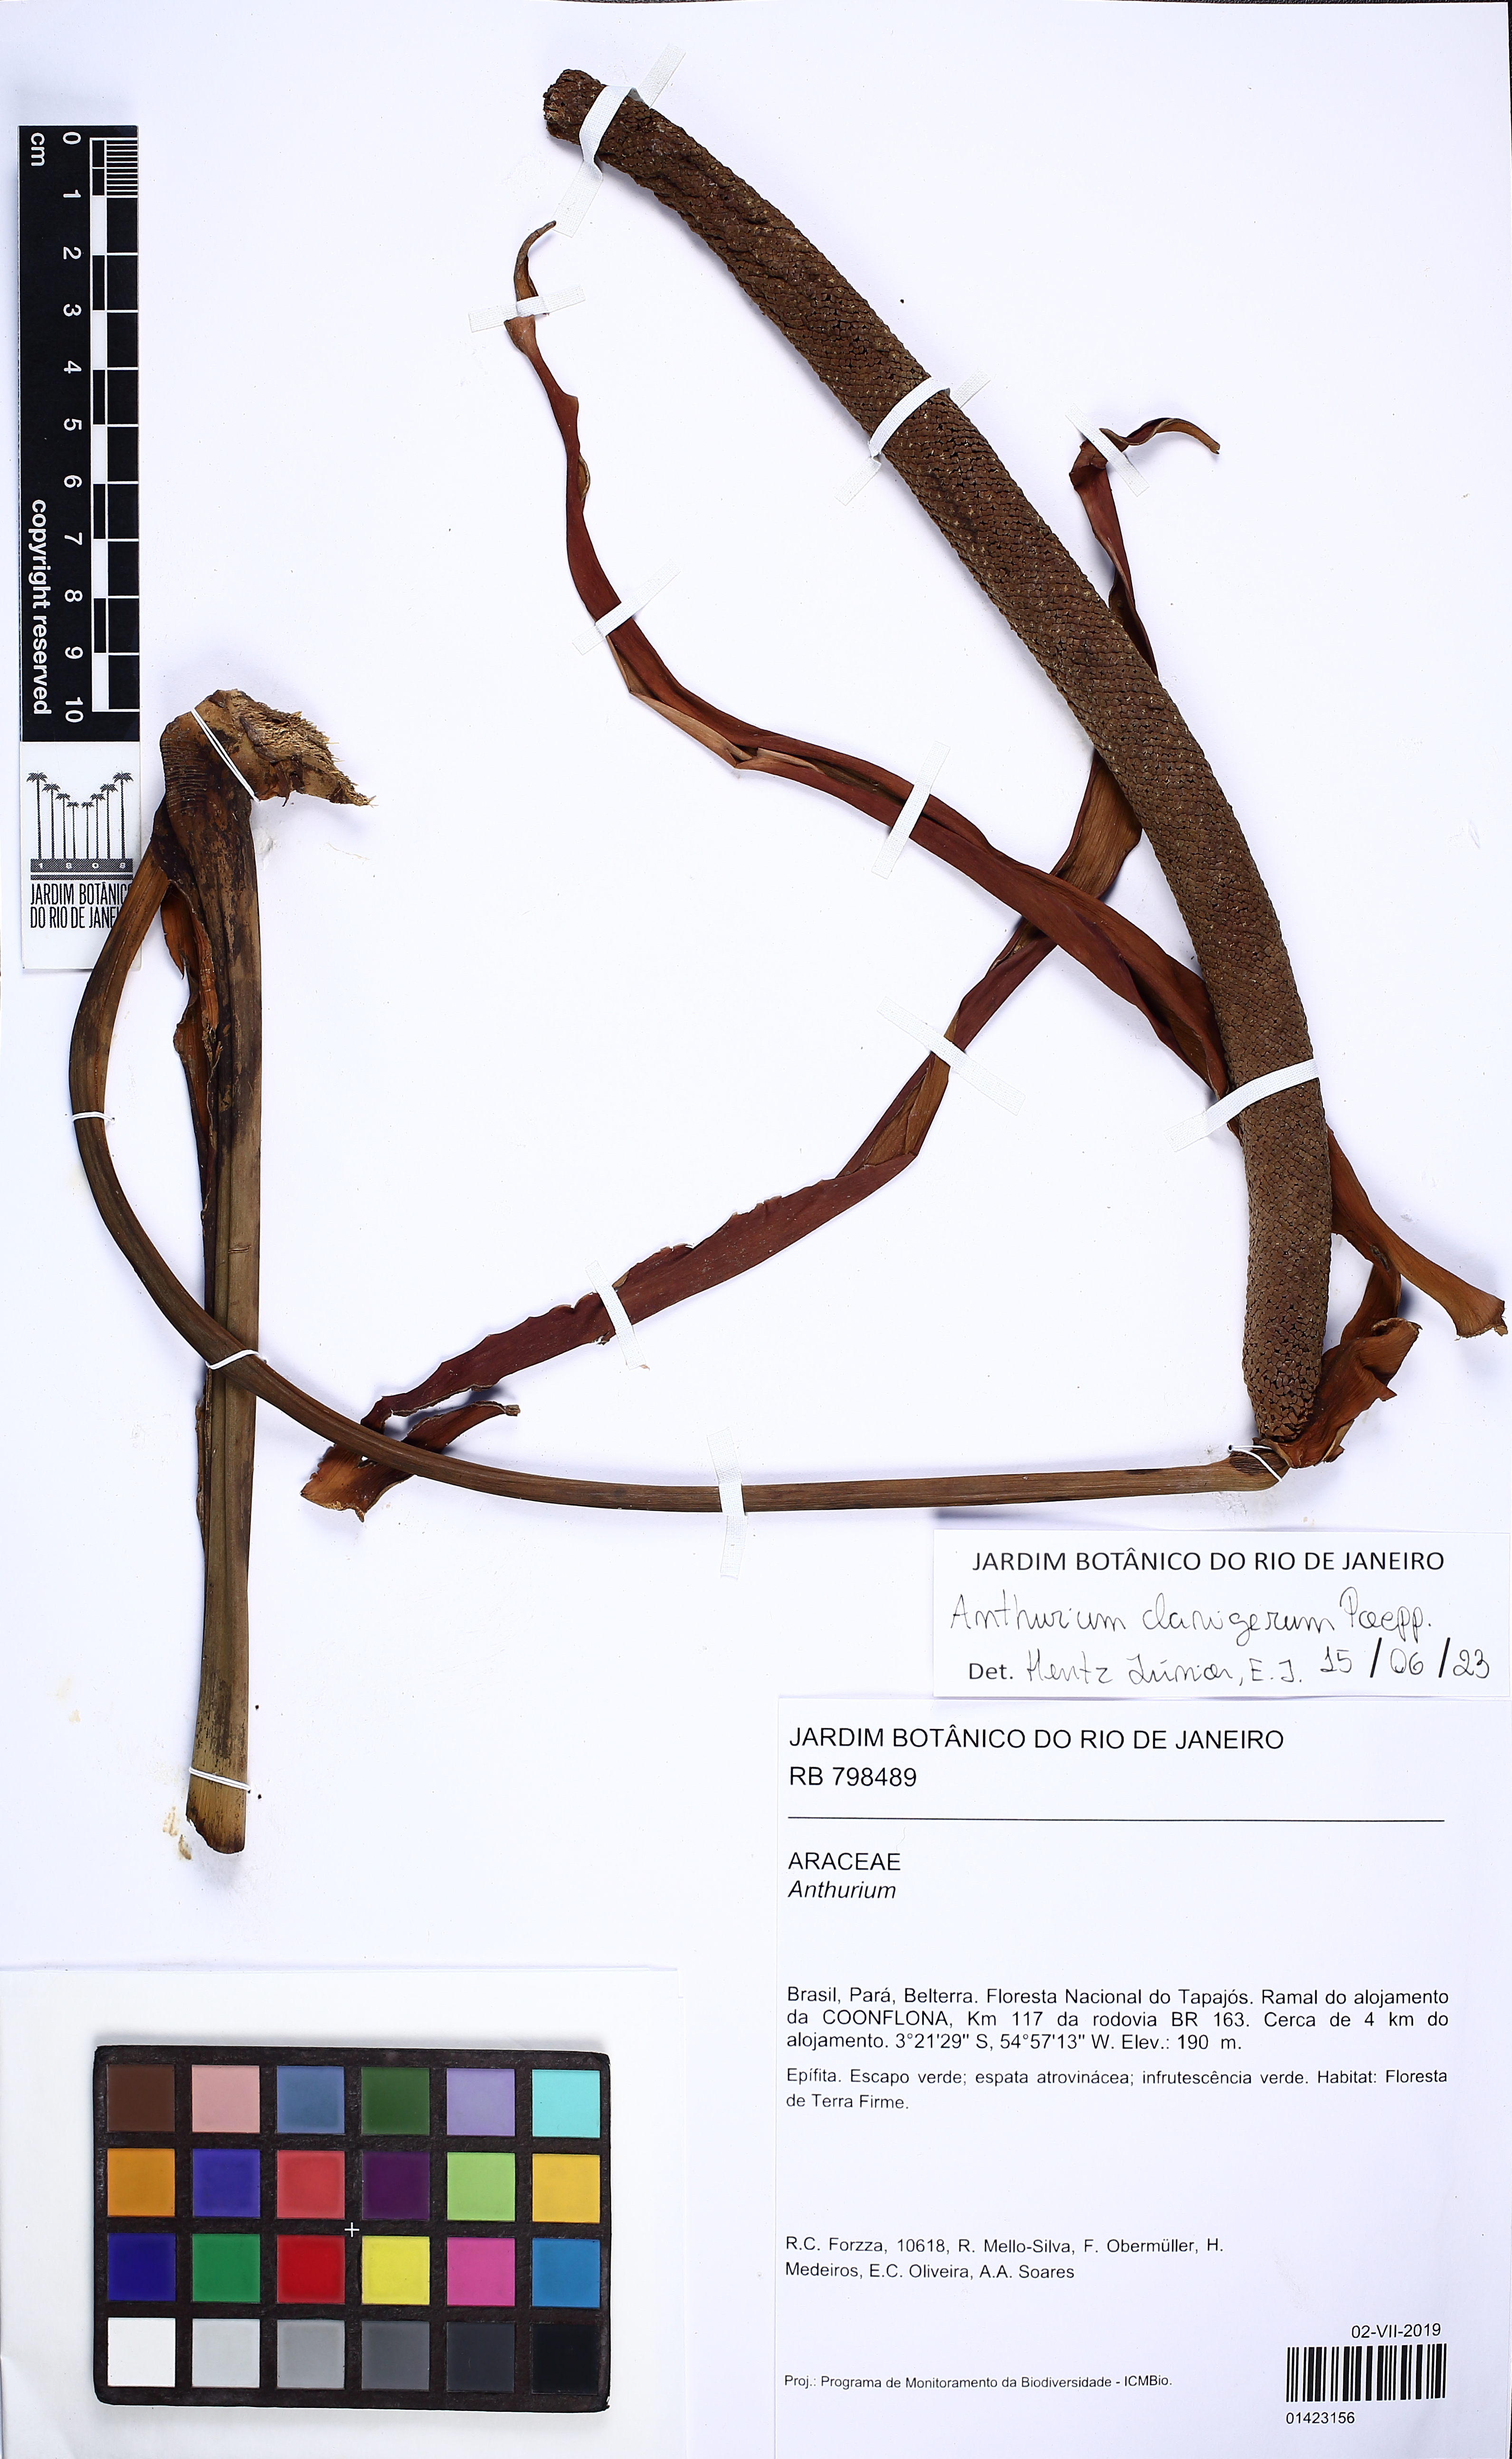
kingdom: Plantae
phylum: Tracheophyta
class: Liliopsida
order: Alismatales
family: Araceae
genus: Anthurium
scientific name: Anthurium clavigerum
